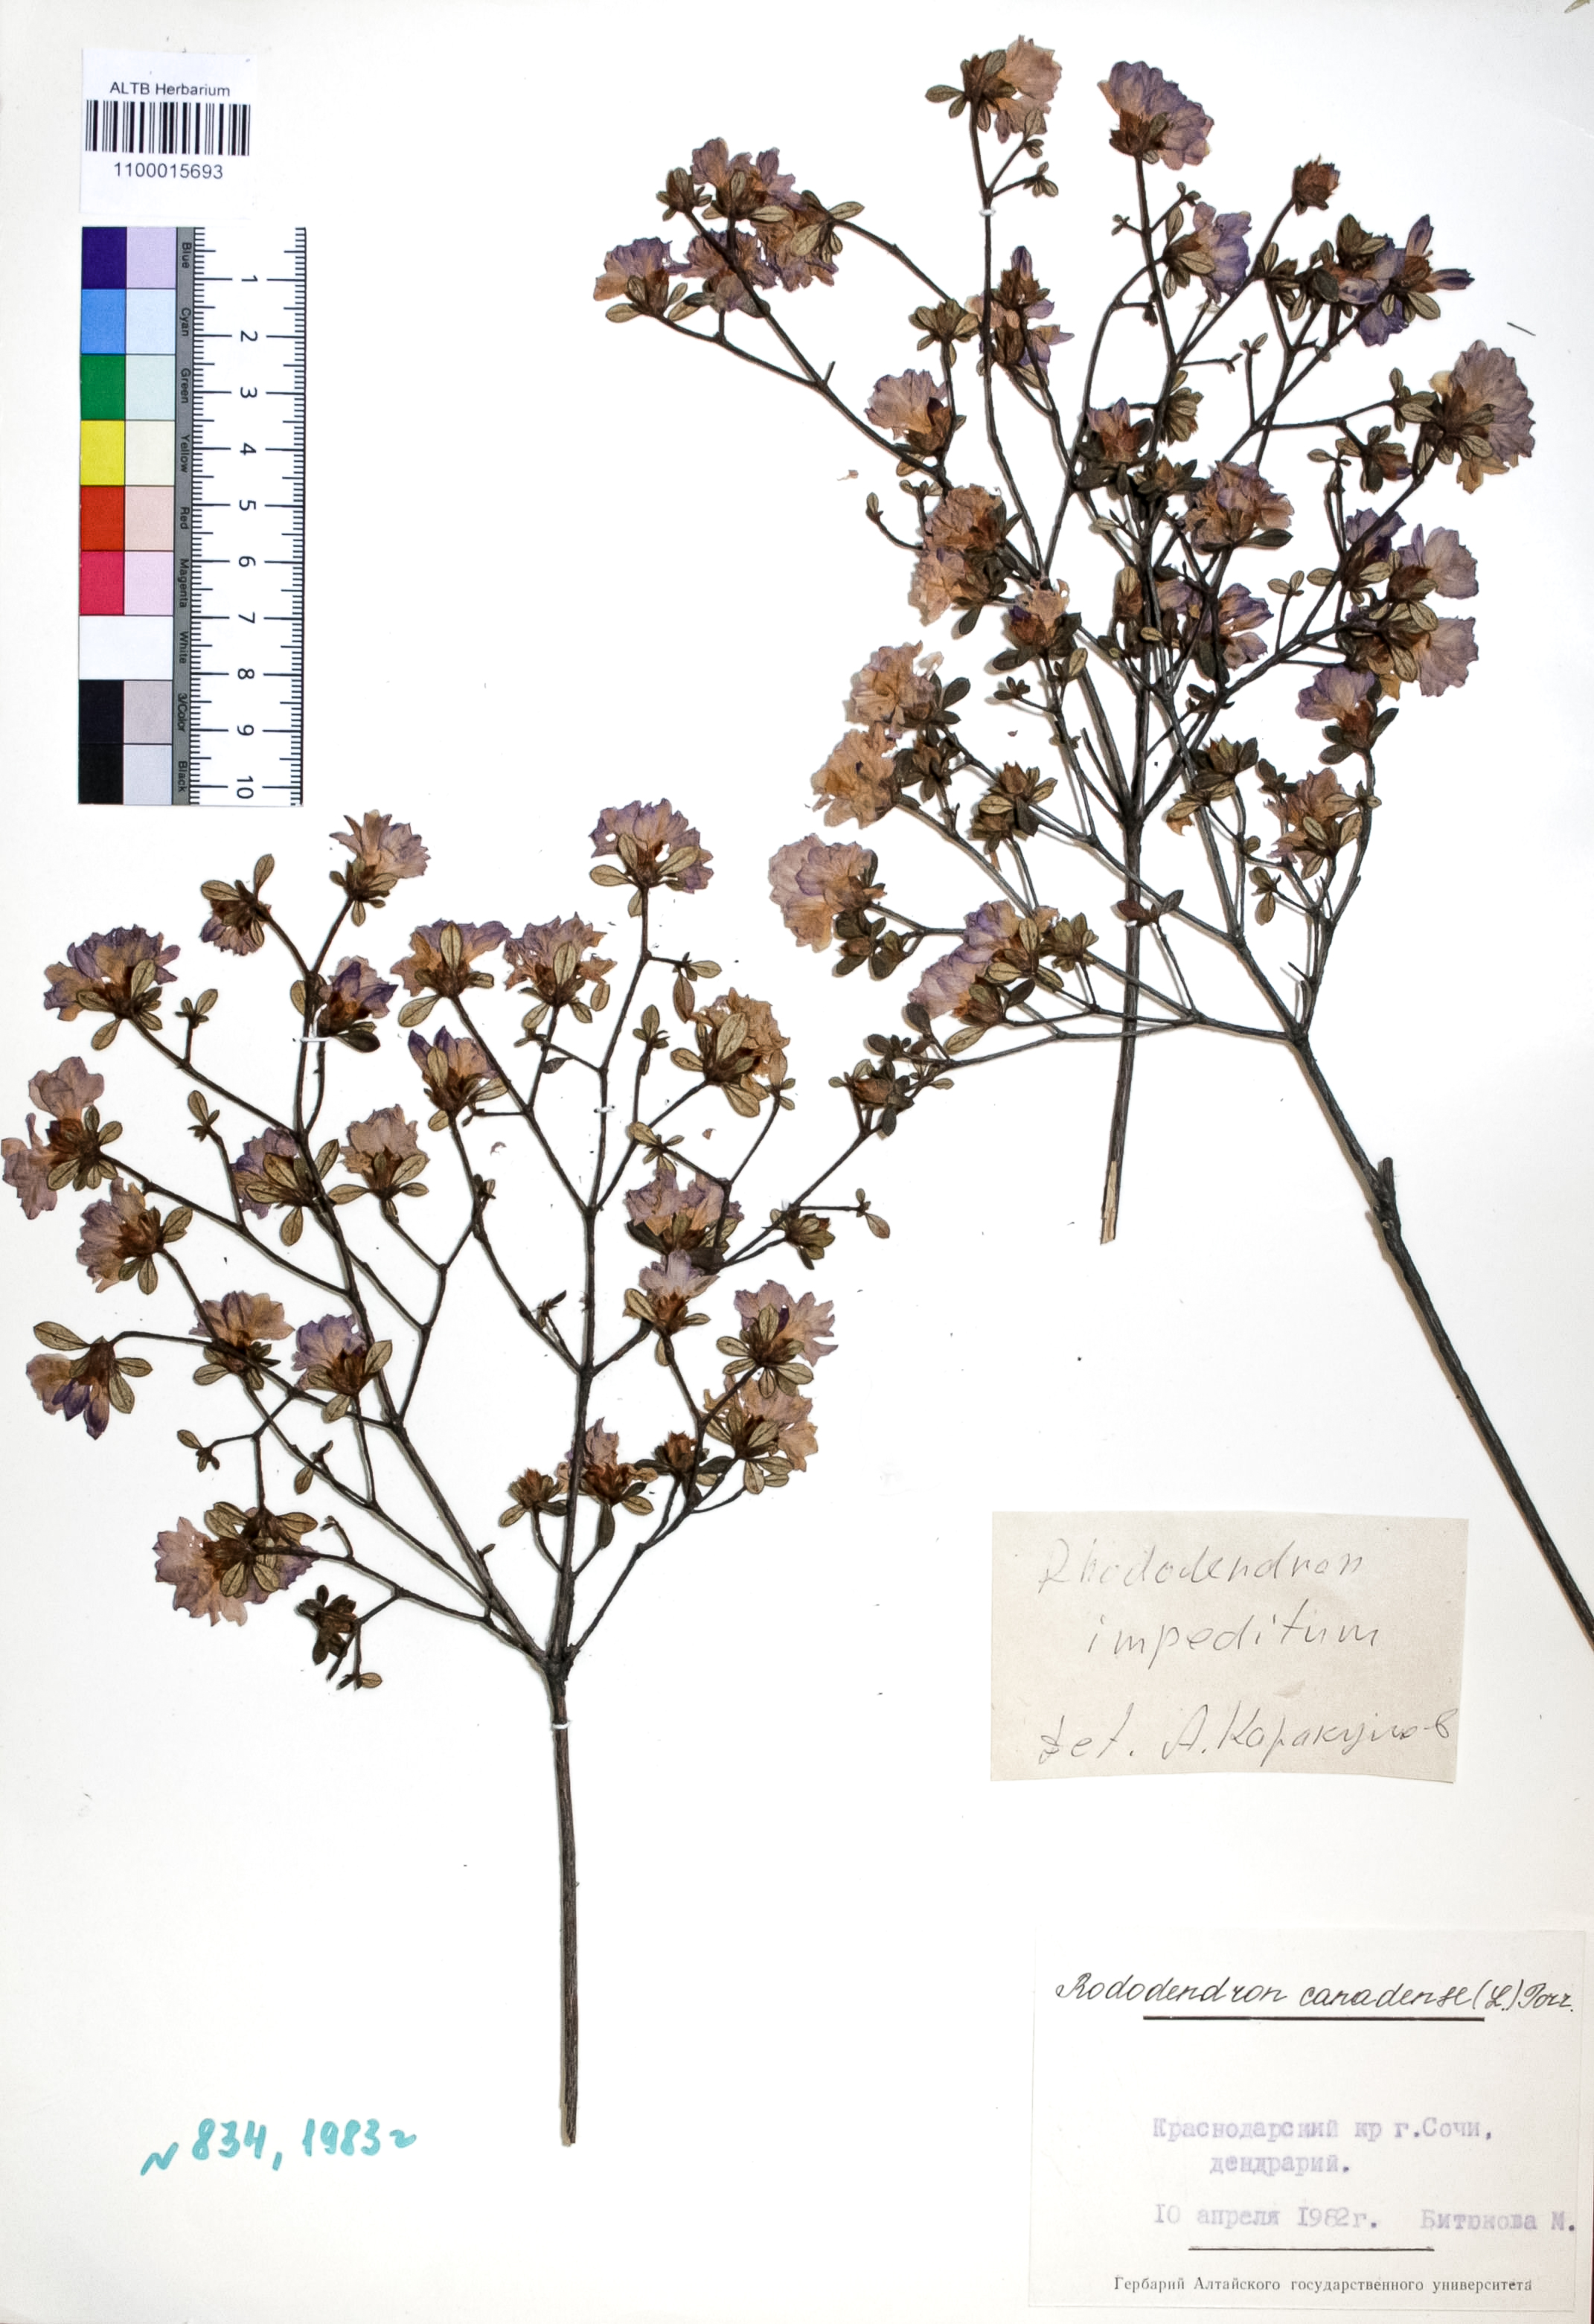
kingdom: Plantae
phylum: Tracheophyta
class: Magnoliopsida
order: Ericales
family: Ericaceae
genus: Rhododendron
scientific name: Rhododendron canadense
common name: Rhodora
